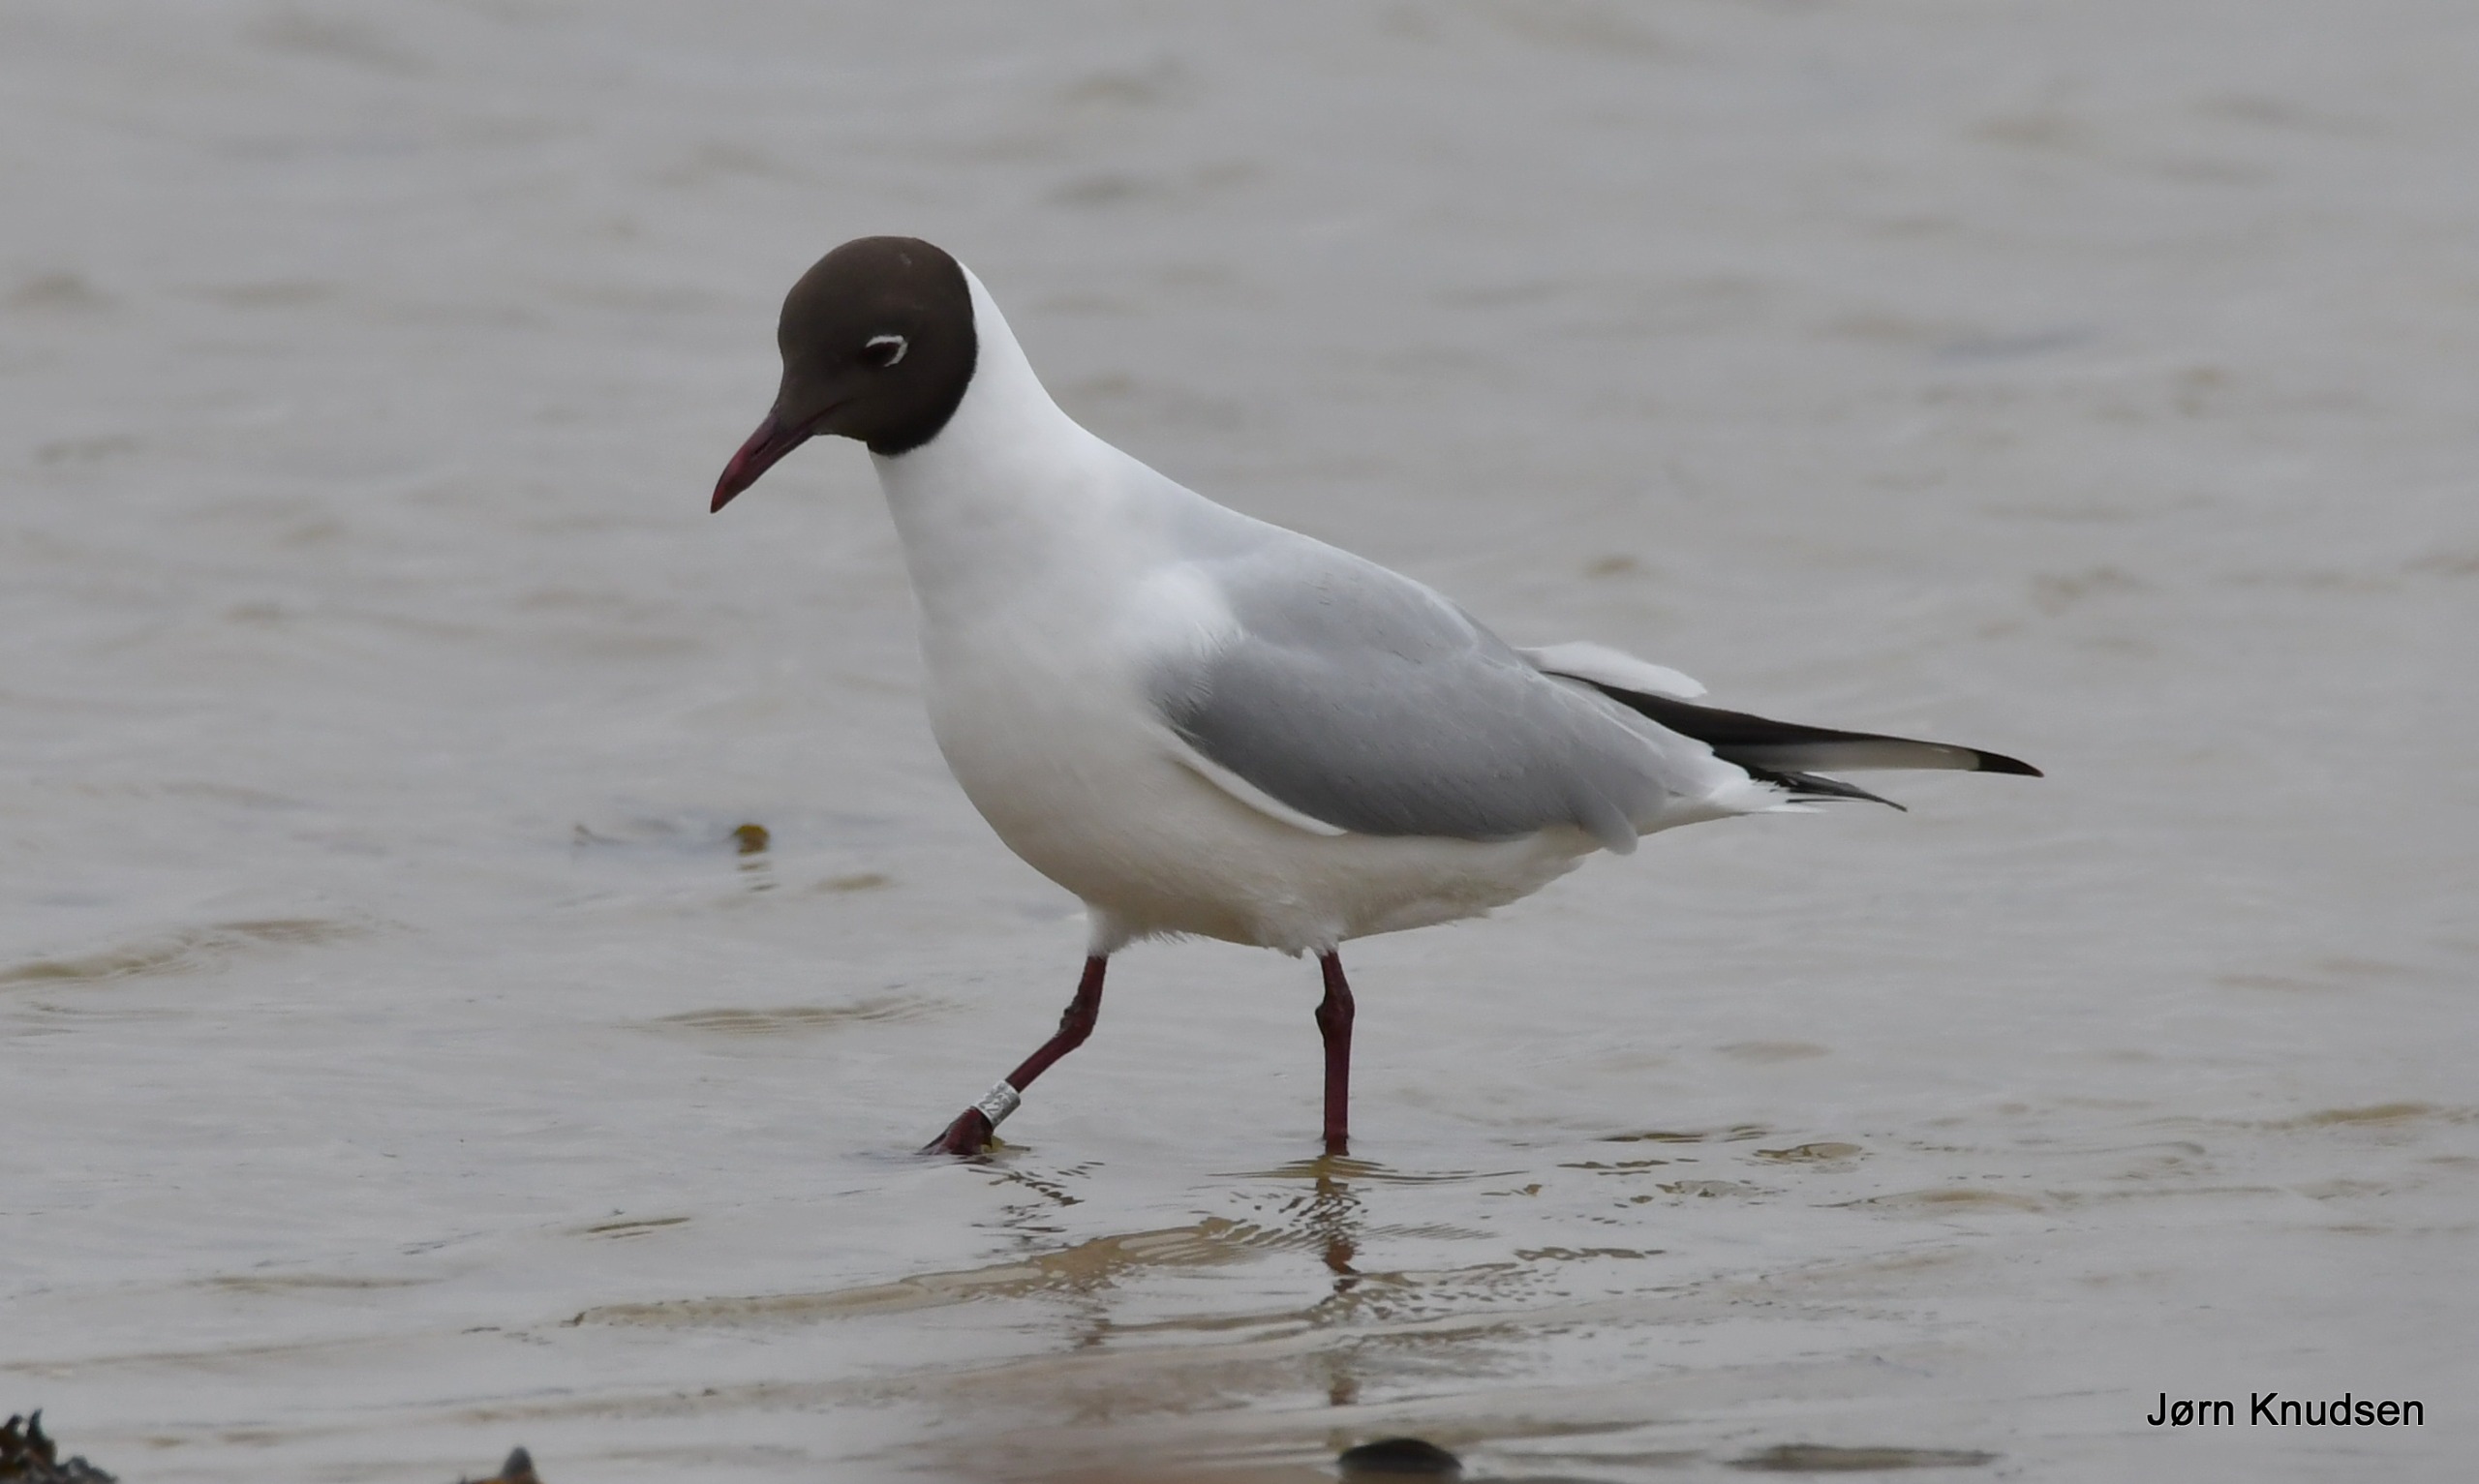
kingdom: Animalia
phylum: Chordata
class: Aves
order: Charadriiformes
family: Laridae
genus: Chroicocephalus
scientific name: Chroicocephalus ridibundus
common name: Hættemåge
